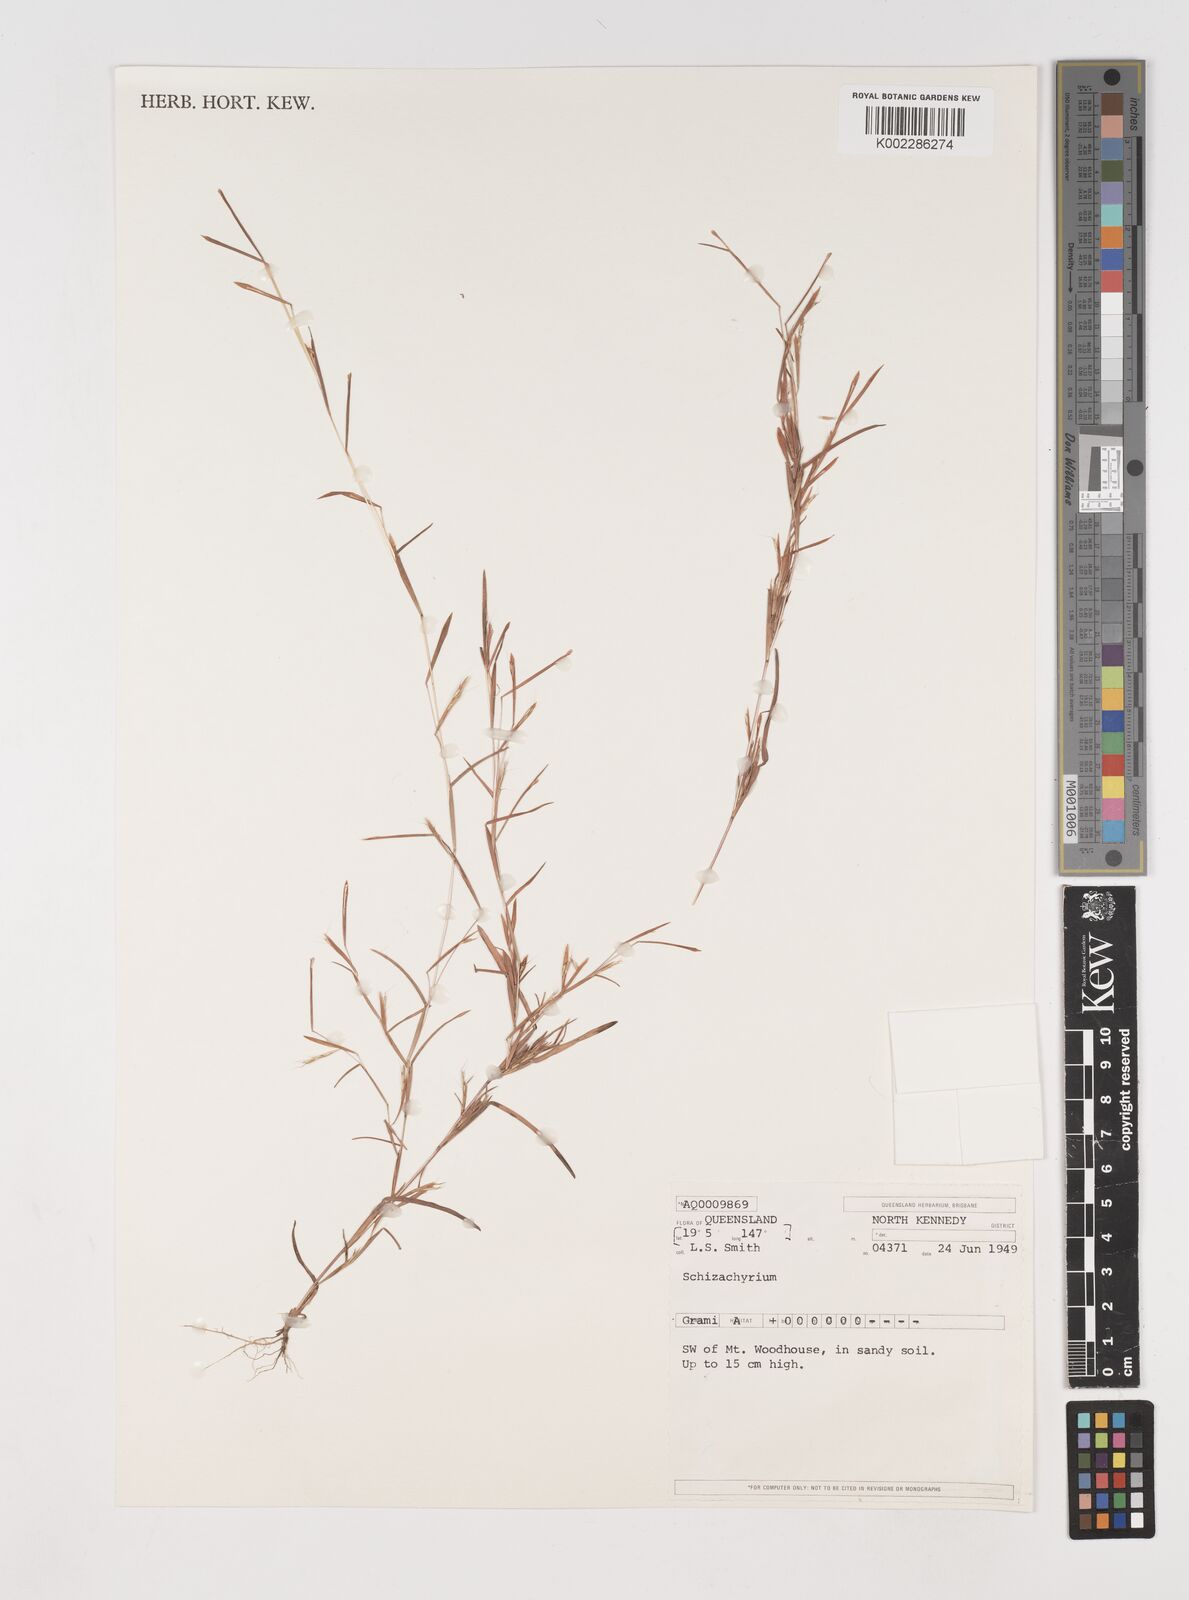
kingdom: Plantae
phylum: Tracheophyta
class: Liliopsida
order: Poales
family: Poaceae
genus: Schizachyrium
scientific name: Schizachyrium pseudeulalia
